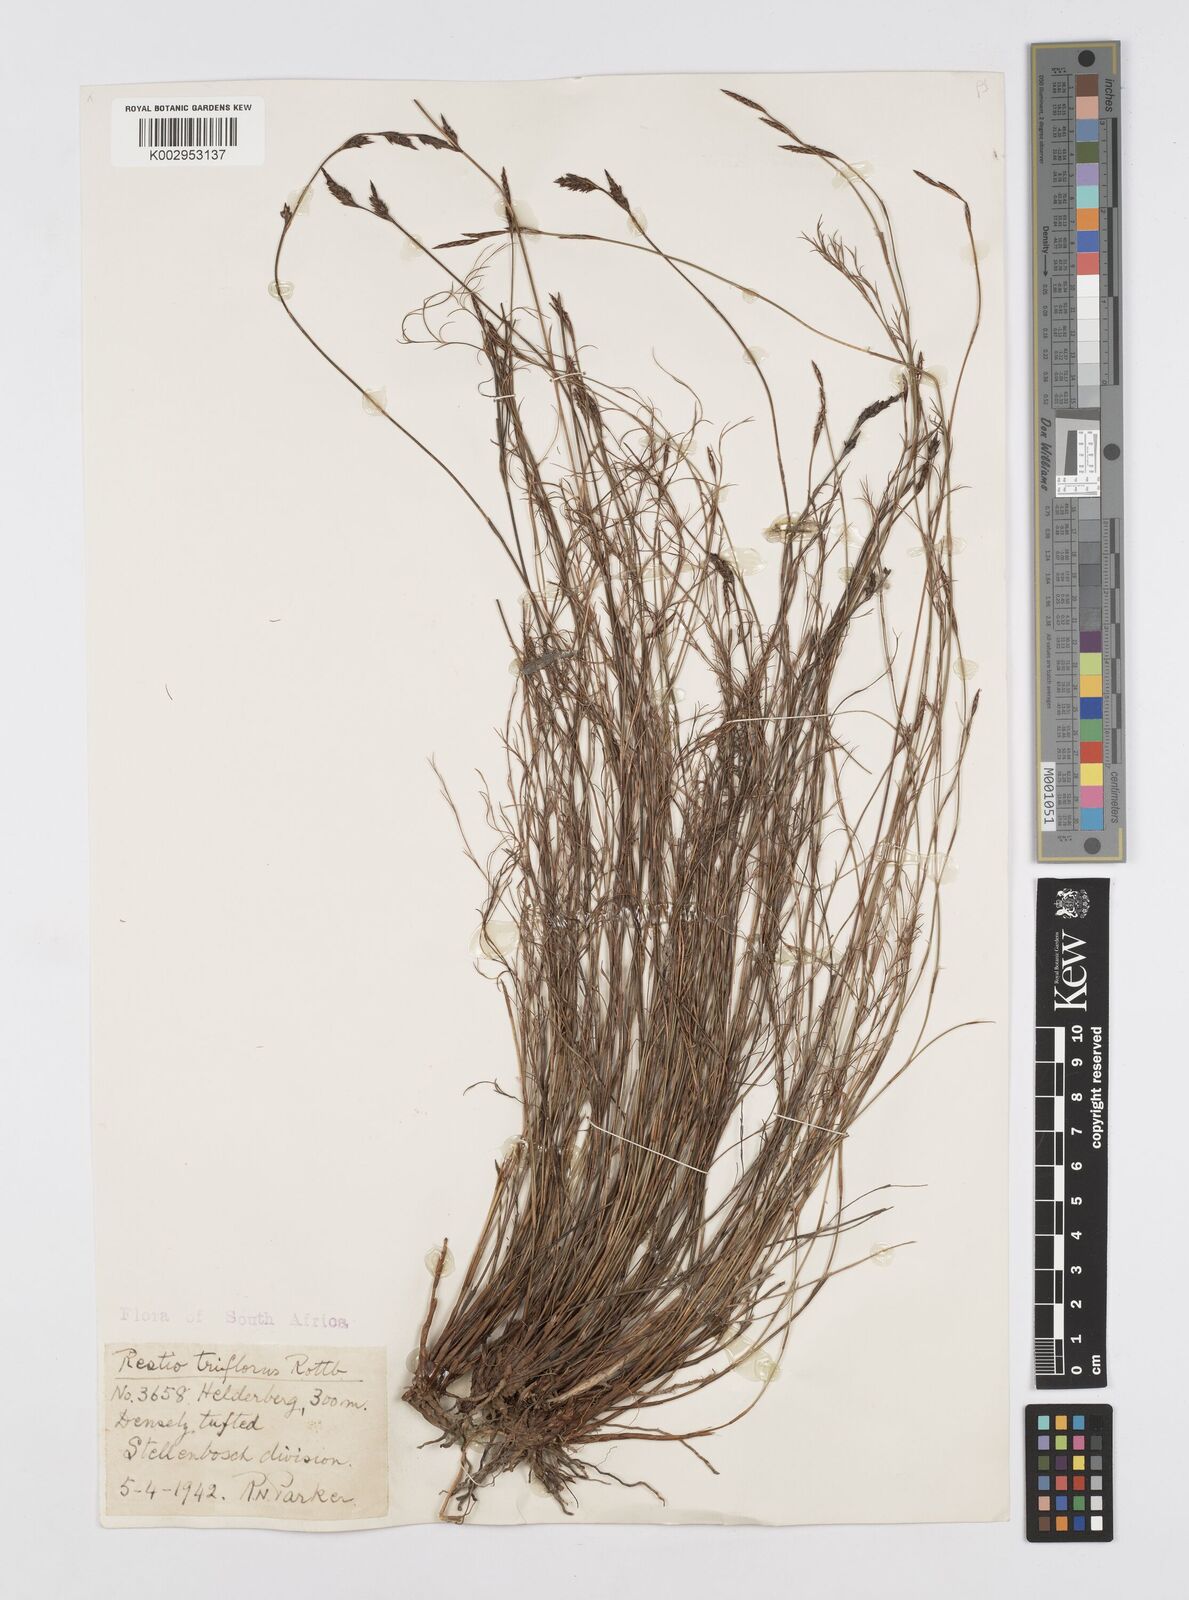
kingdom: Plantae
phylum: Tracheophyta
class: Liliopsida
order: Poales
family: Restionaceae
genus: Restio
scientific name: Restio triflorus
